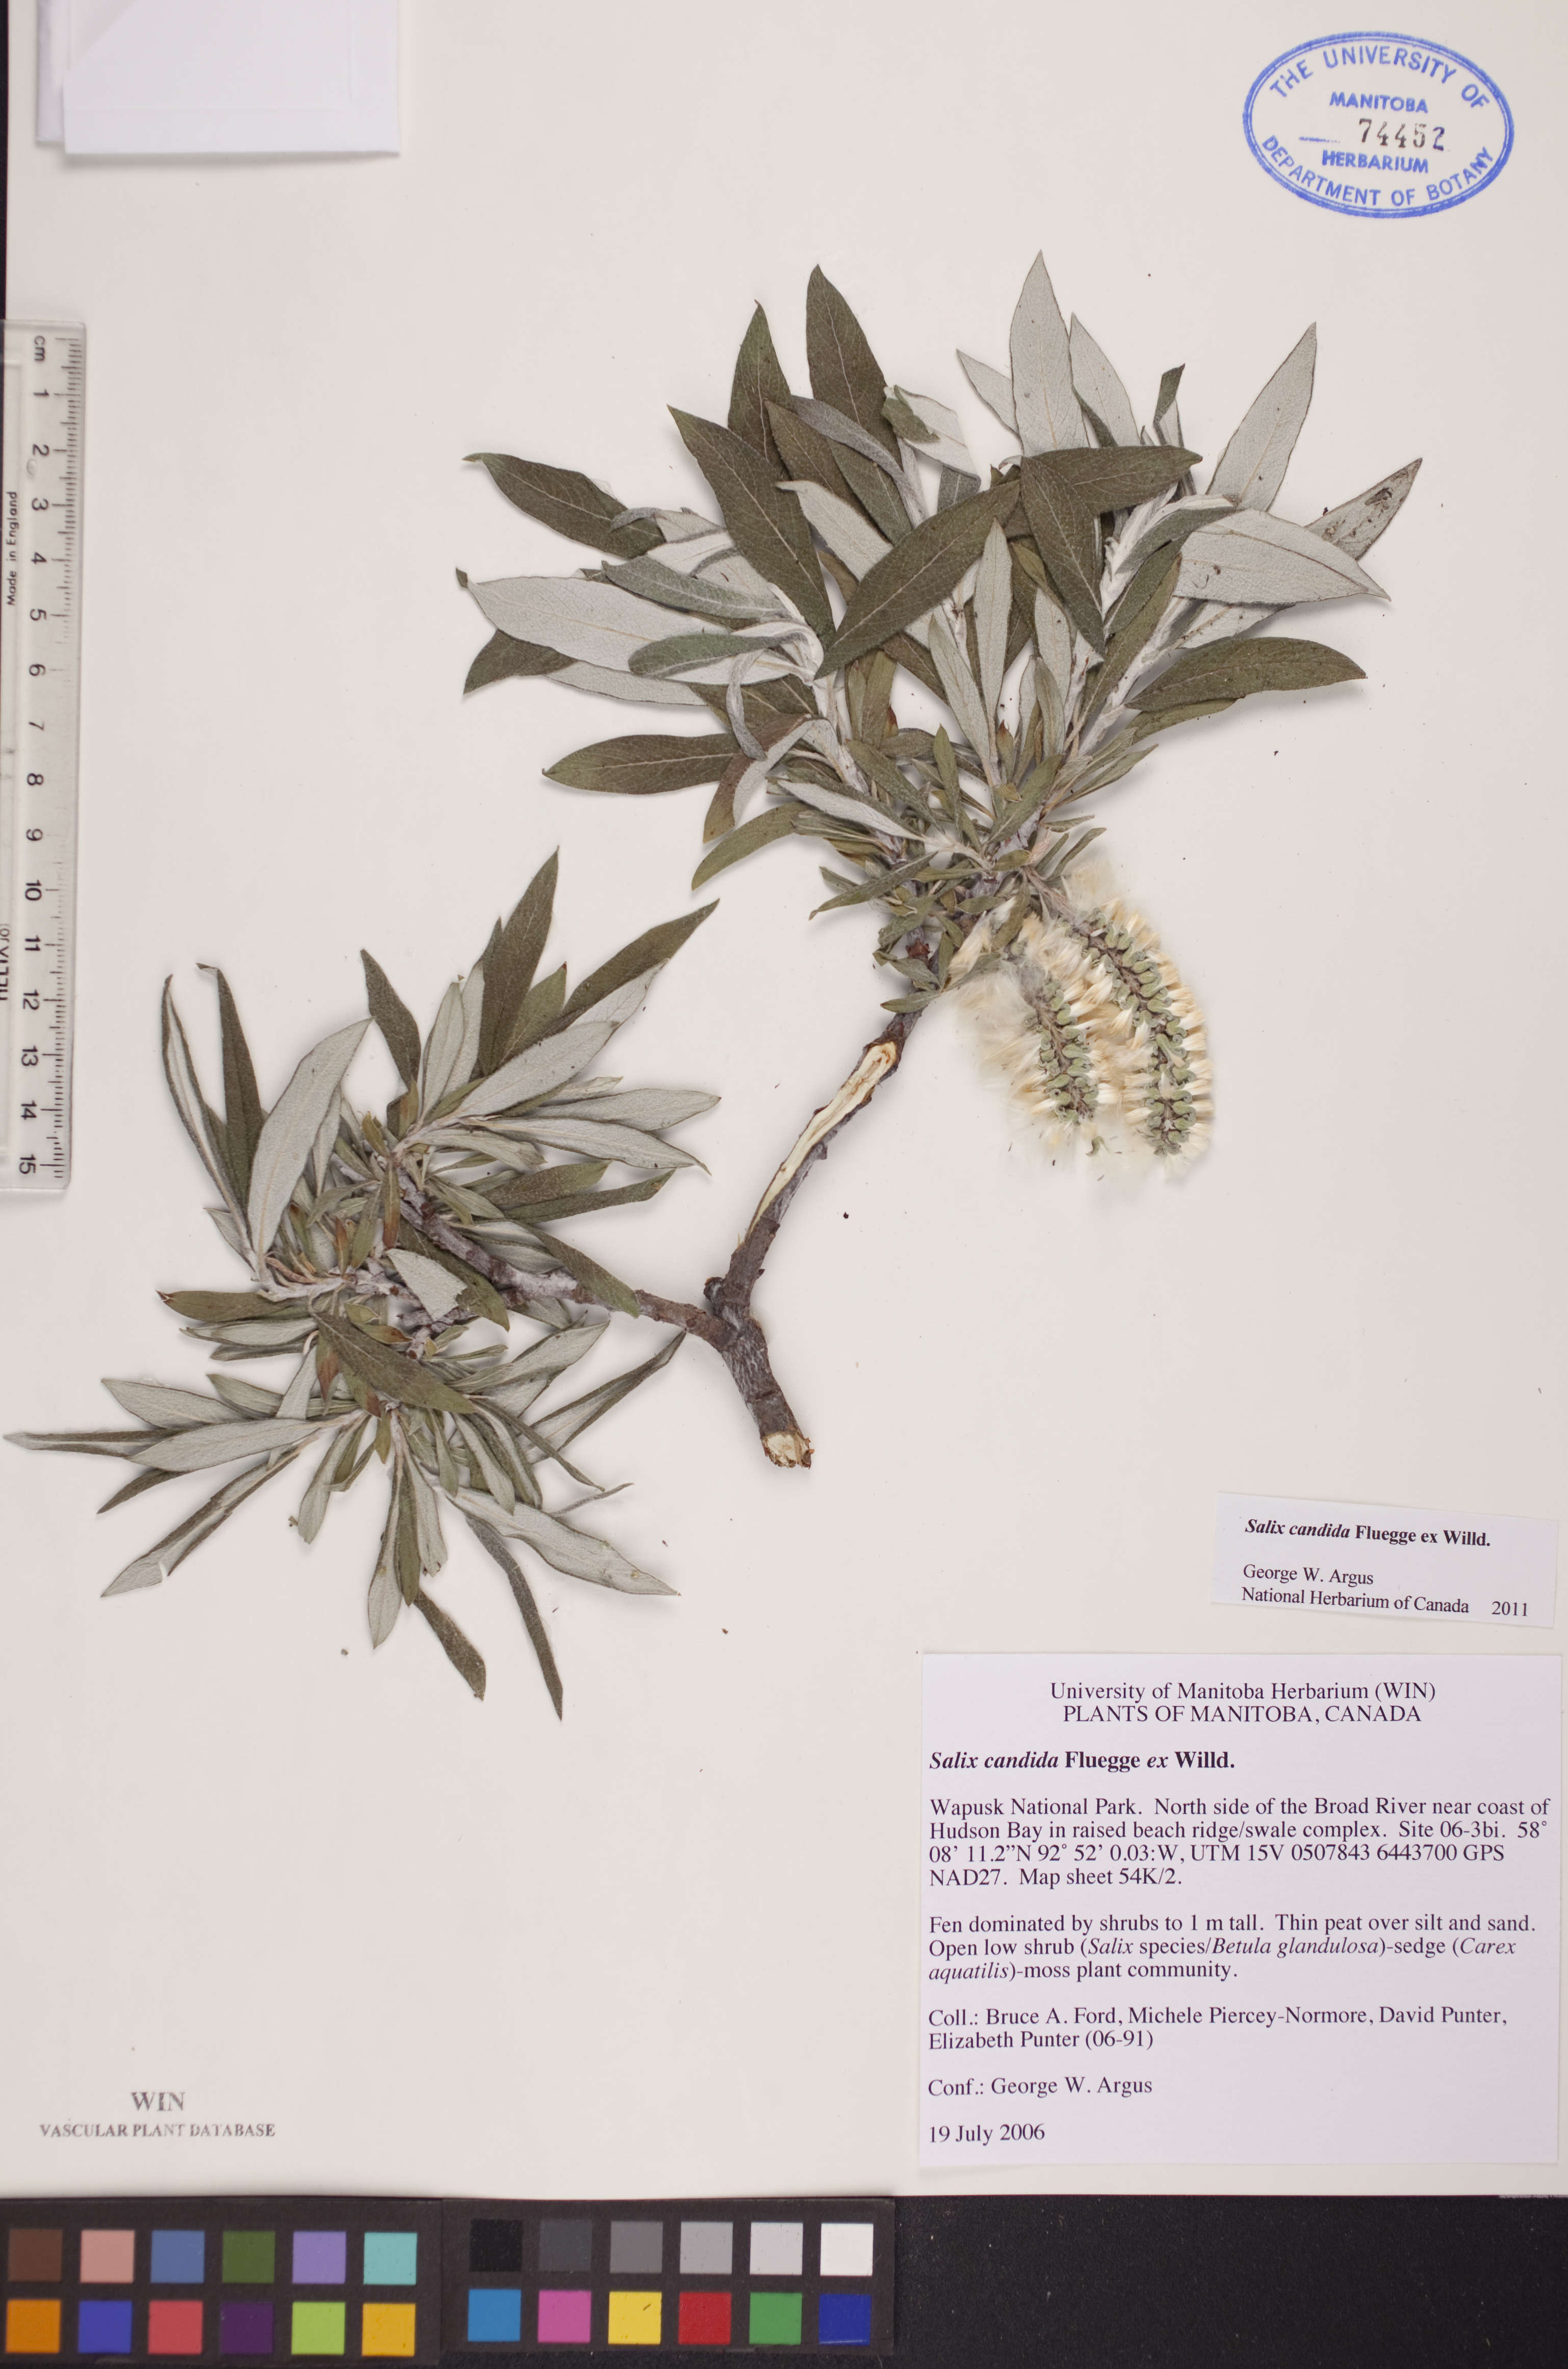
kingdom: Plantae
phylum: Tracheophyta
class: Magnoliopsida
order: Malpighiales
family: Salicaceae
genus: Salix
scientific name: Salix candida
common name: Hoary willow
